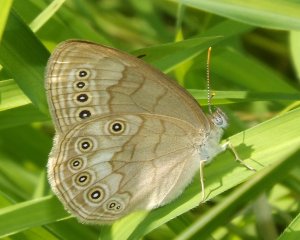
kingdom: Animalia
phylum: Arthropoda
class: Insecta
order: Lepidoptera
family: Nymphalidae
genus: Lethe
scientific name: Lethe eurydice
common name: Eyed Brown
